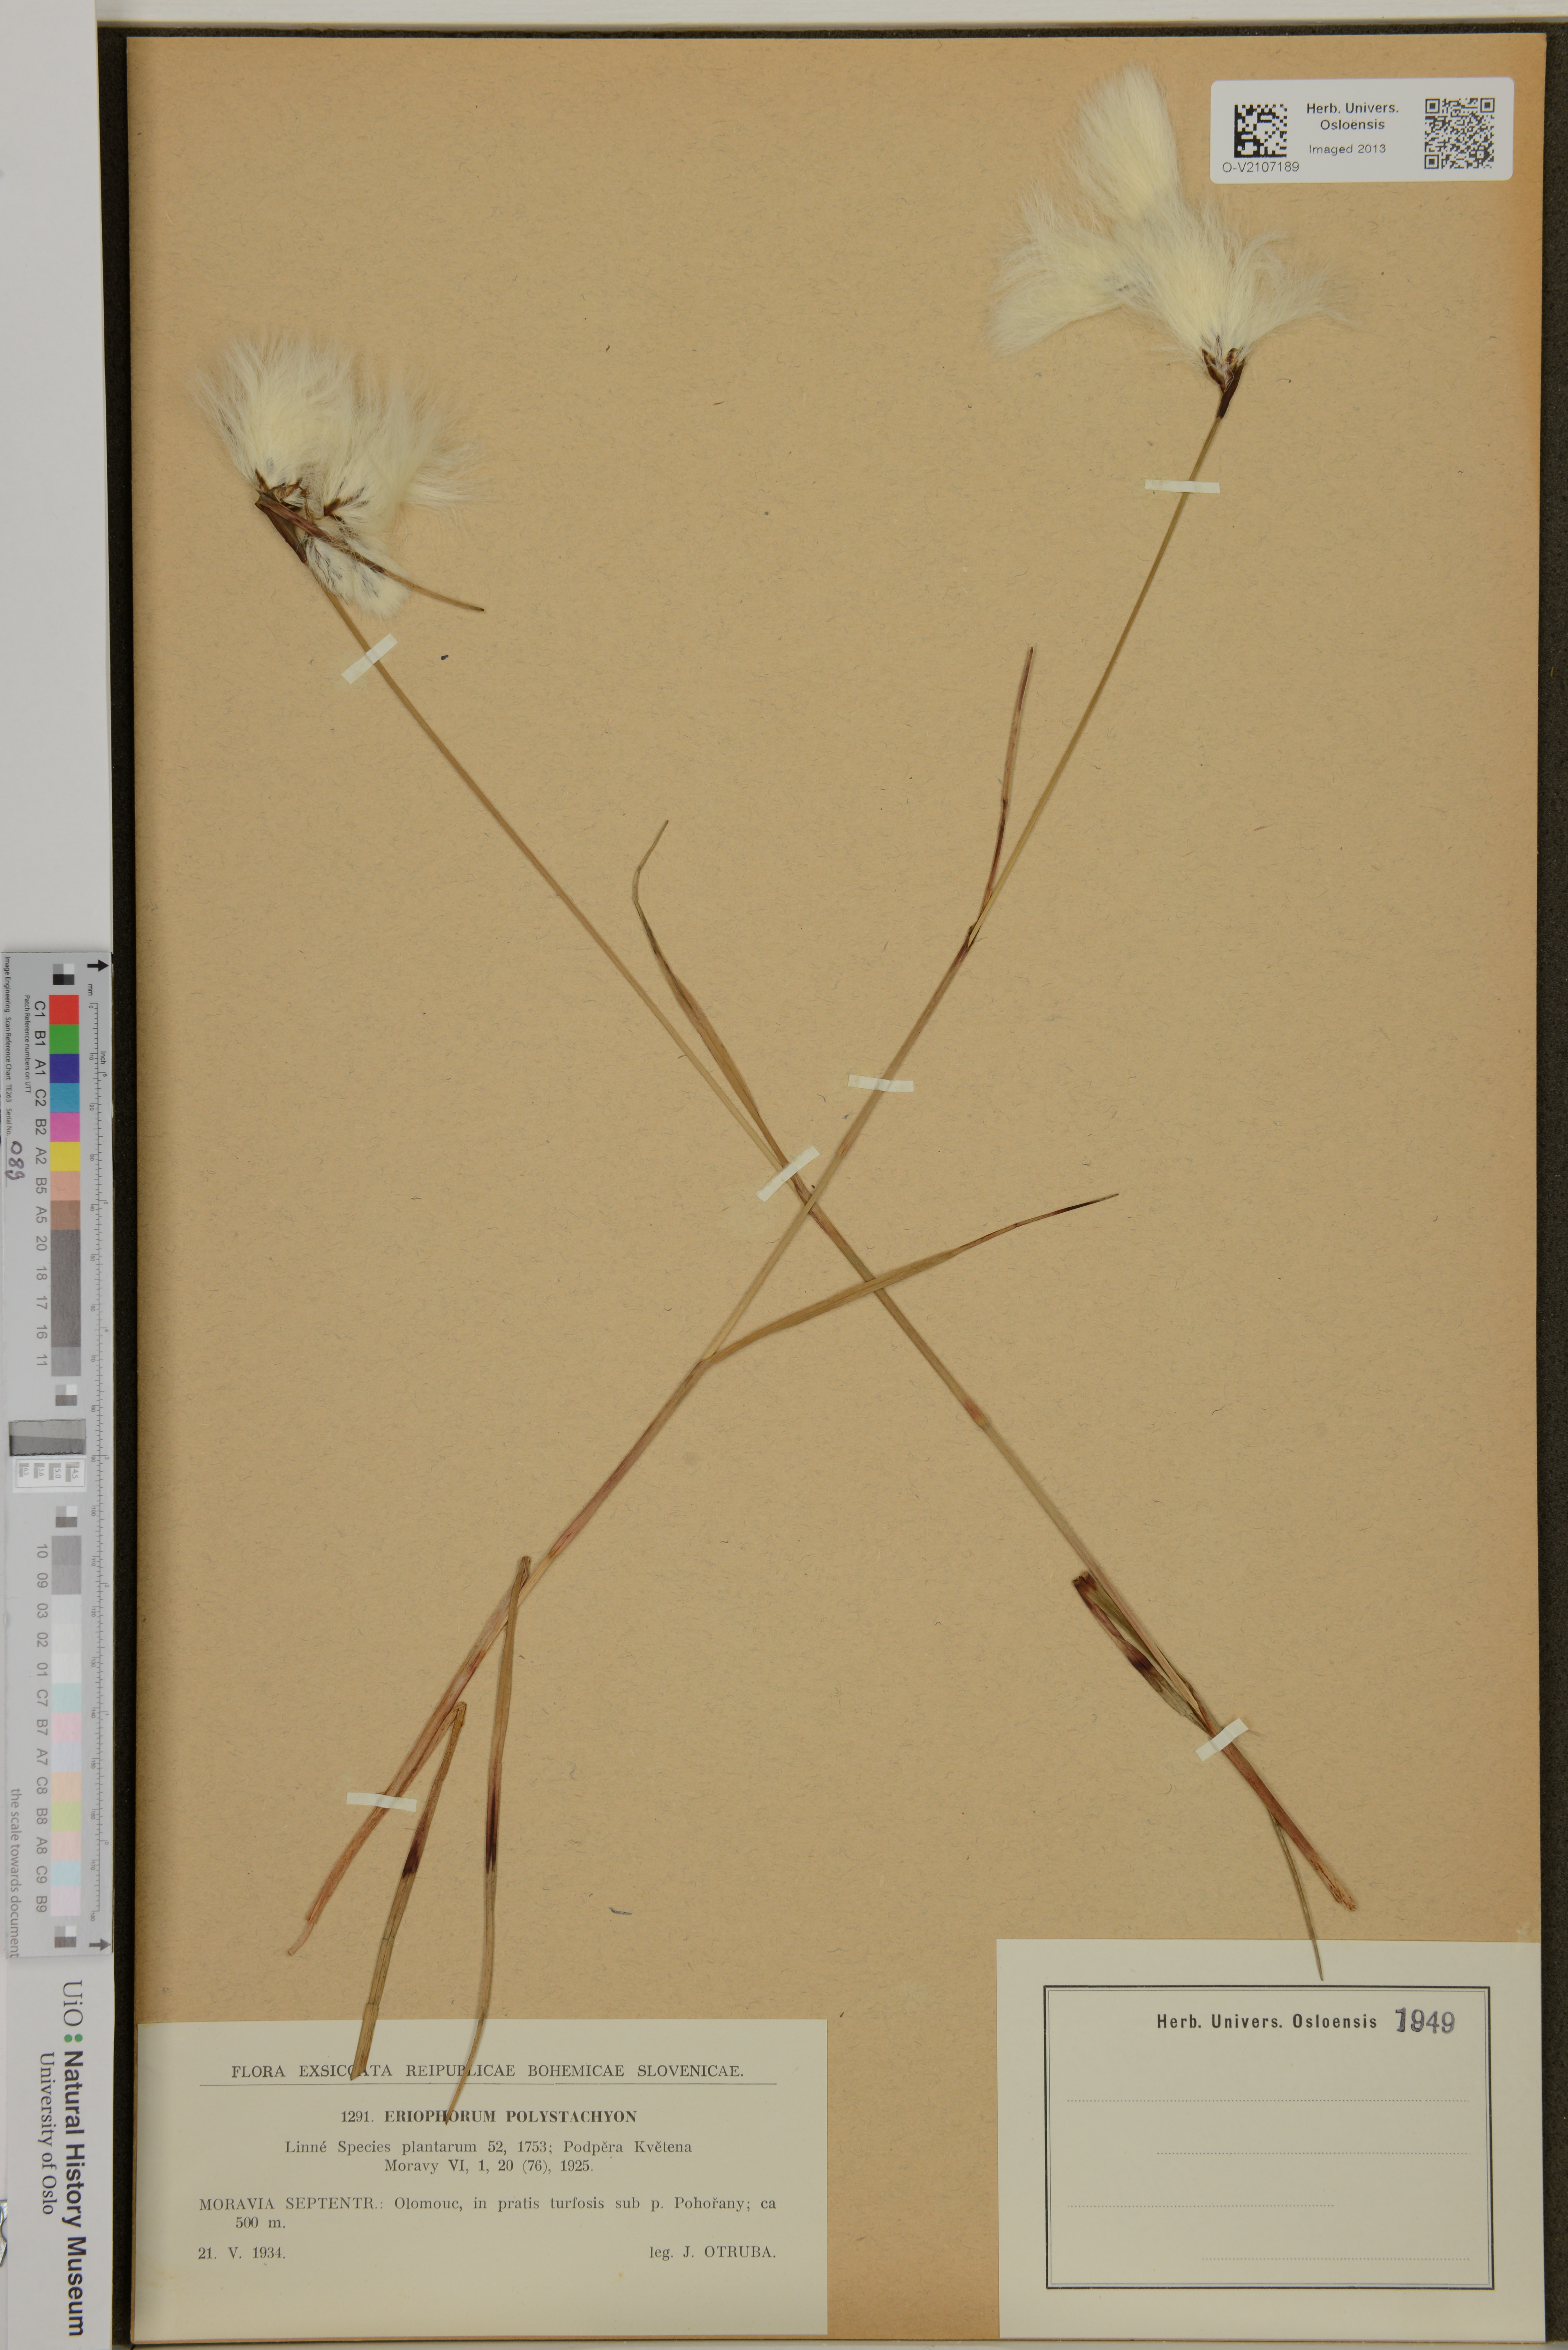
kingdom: Plantae
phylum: Tracheophyta
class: Liliopsida
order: Poales
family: Cyperaceae
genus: Eriophorum
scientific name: Eriophorum angustifolium
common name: Common cottongrass
